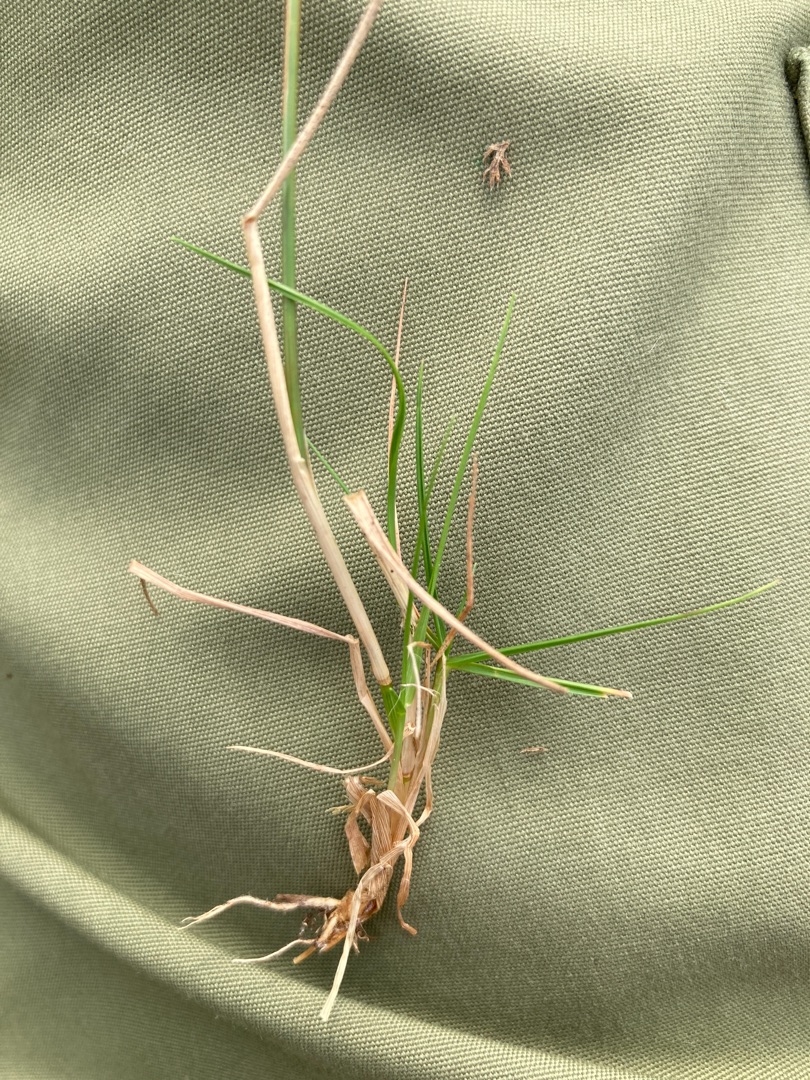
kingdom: Plantae
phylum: Tracheophyta
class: Liliopsida
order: Poales
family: Poaceae
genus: Agrostis
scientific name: Agrostis capillaris
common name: Almindelig hvene
